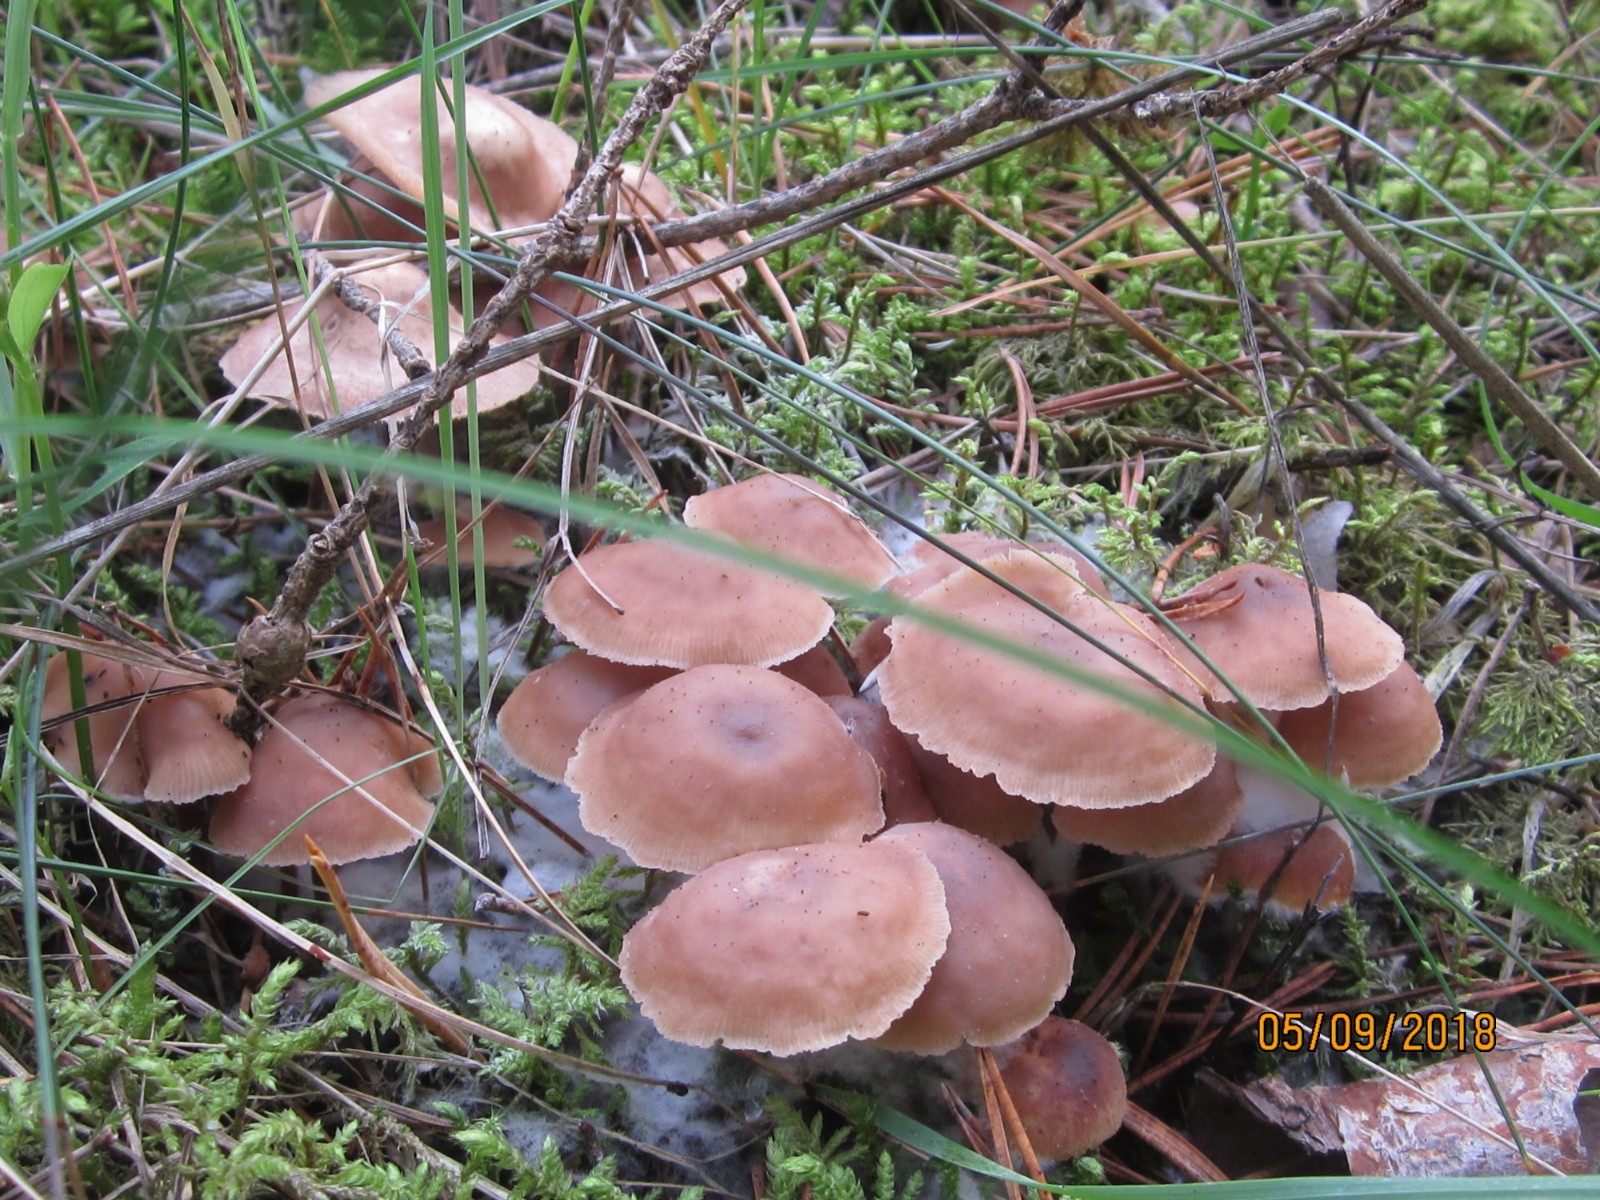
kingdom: Fungi
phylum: Basidiomycota
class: Agaricomycetes
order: Agaricales
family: Omphalotaceae
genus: Collybiopsis
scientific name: Collybiopsis confluens
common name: knippe-fladhat
